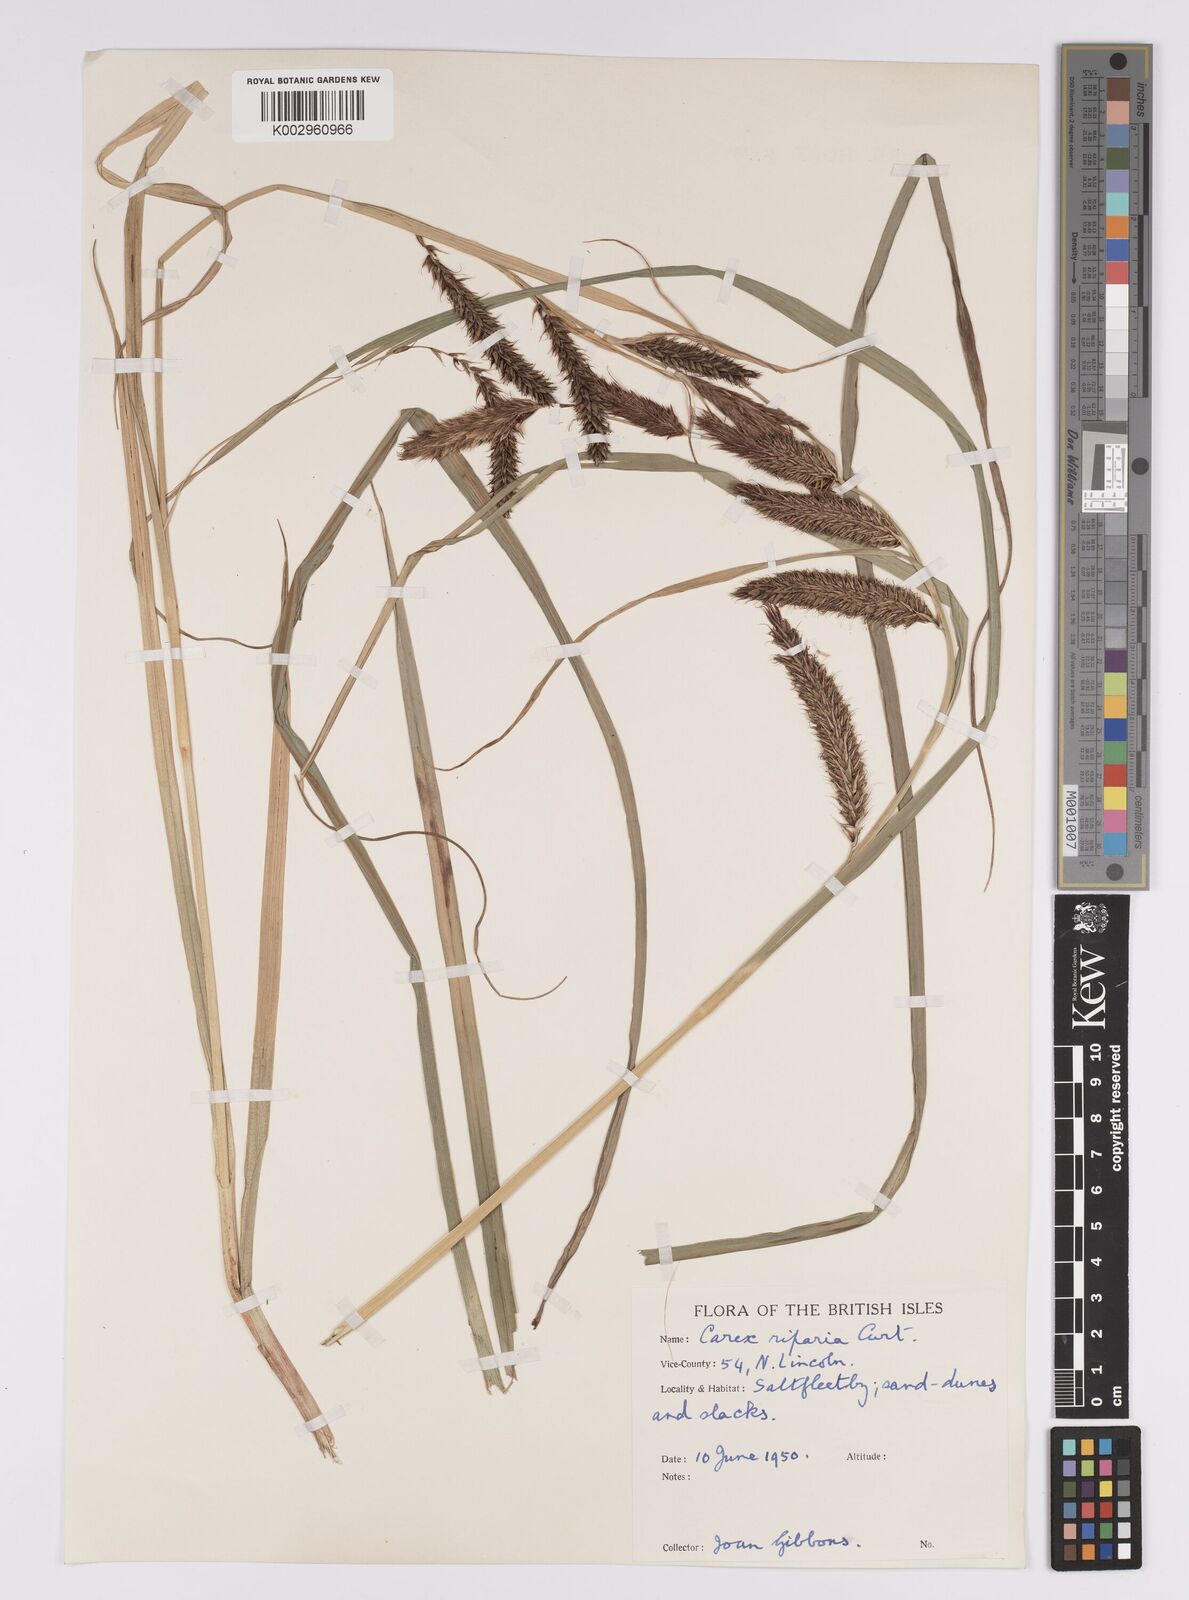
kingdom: Plantae
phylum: Tracheophyta
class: Liliopsida
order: Poales
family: Cyperaceae
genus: Carex
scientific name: Carex riparia
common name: Greater pond-sedge
